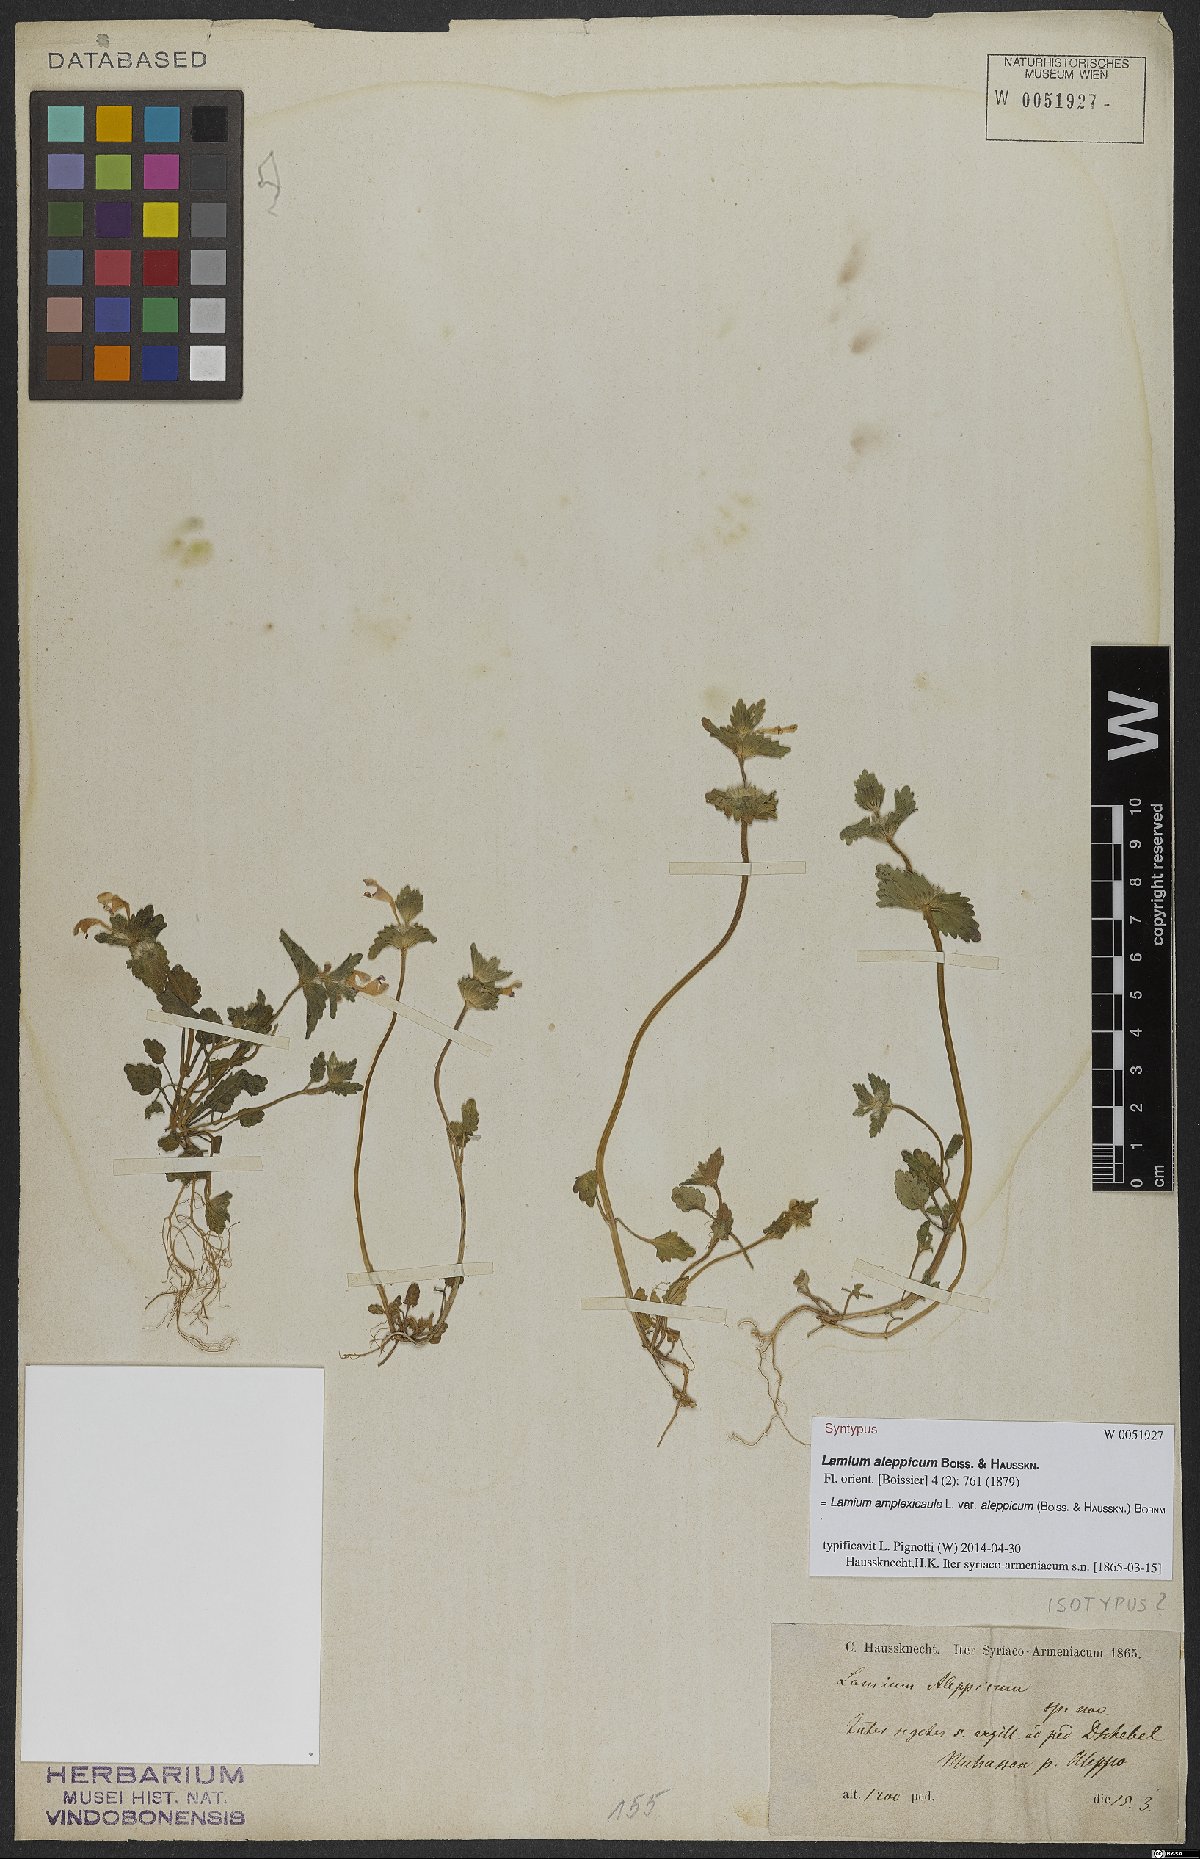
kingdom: Plantae
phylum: Tracheophyta
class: Magnoliopsida
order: Lamiales
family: Lamiaceae
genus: Lamium
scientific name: Lamium amplexicaule
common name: Henbit dead-nettle
